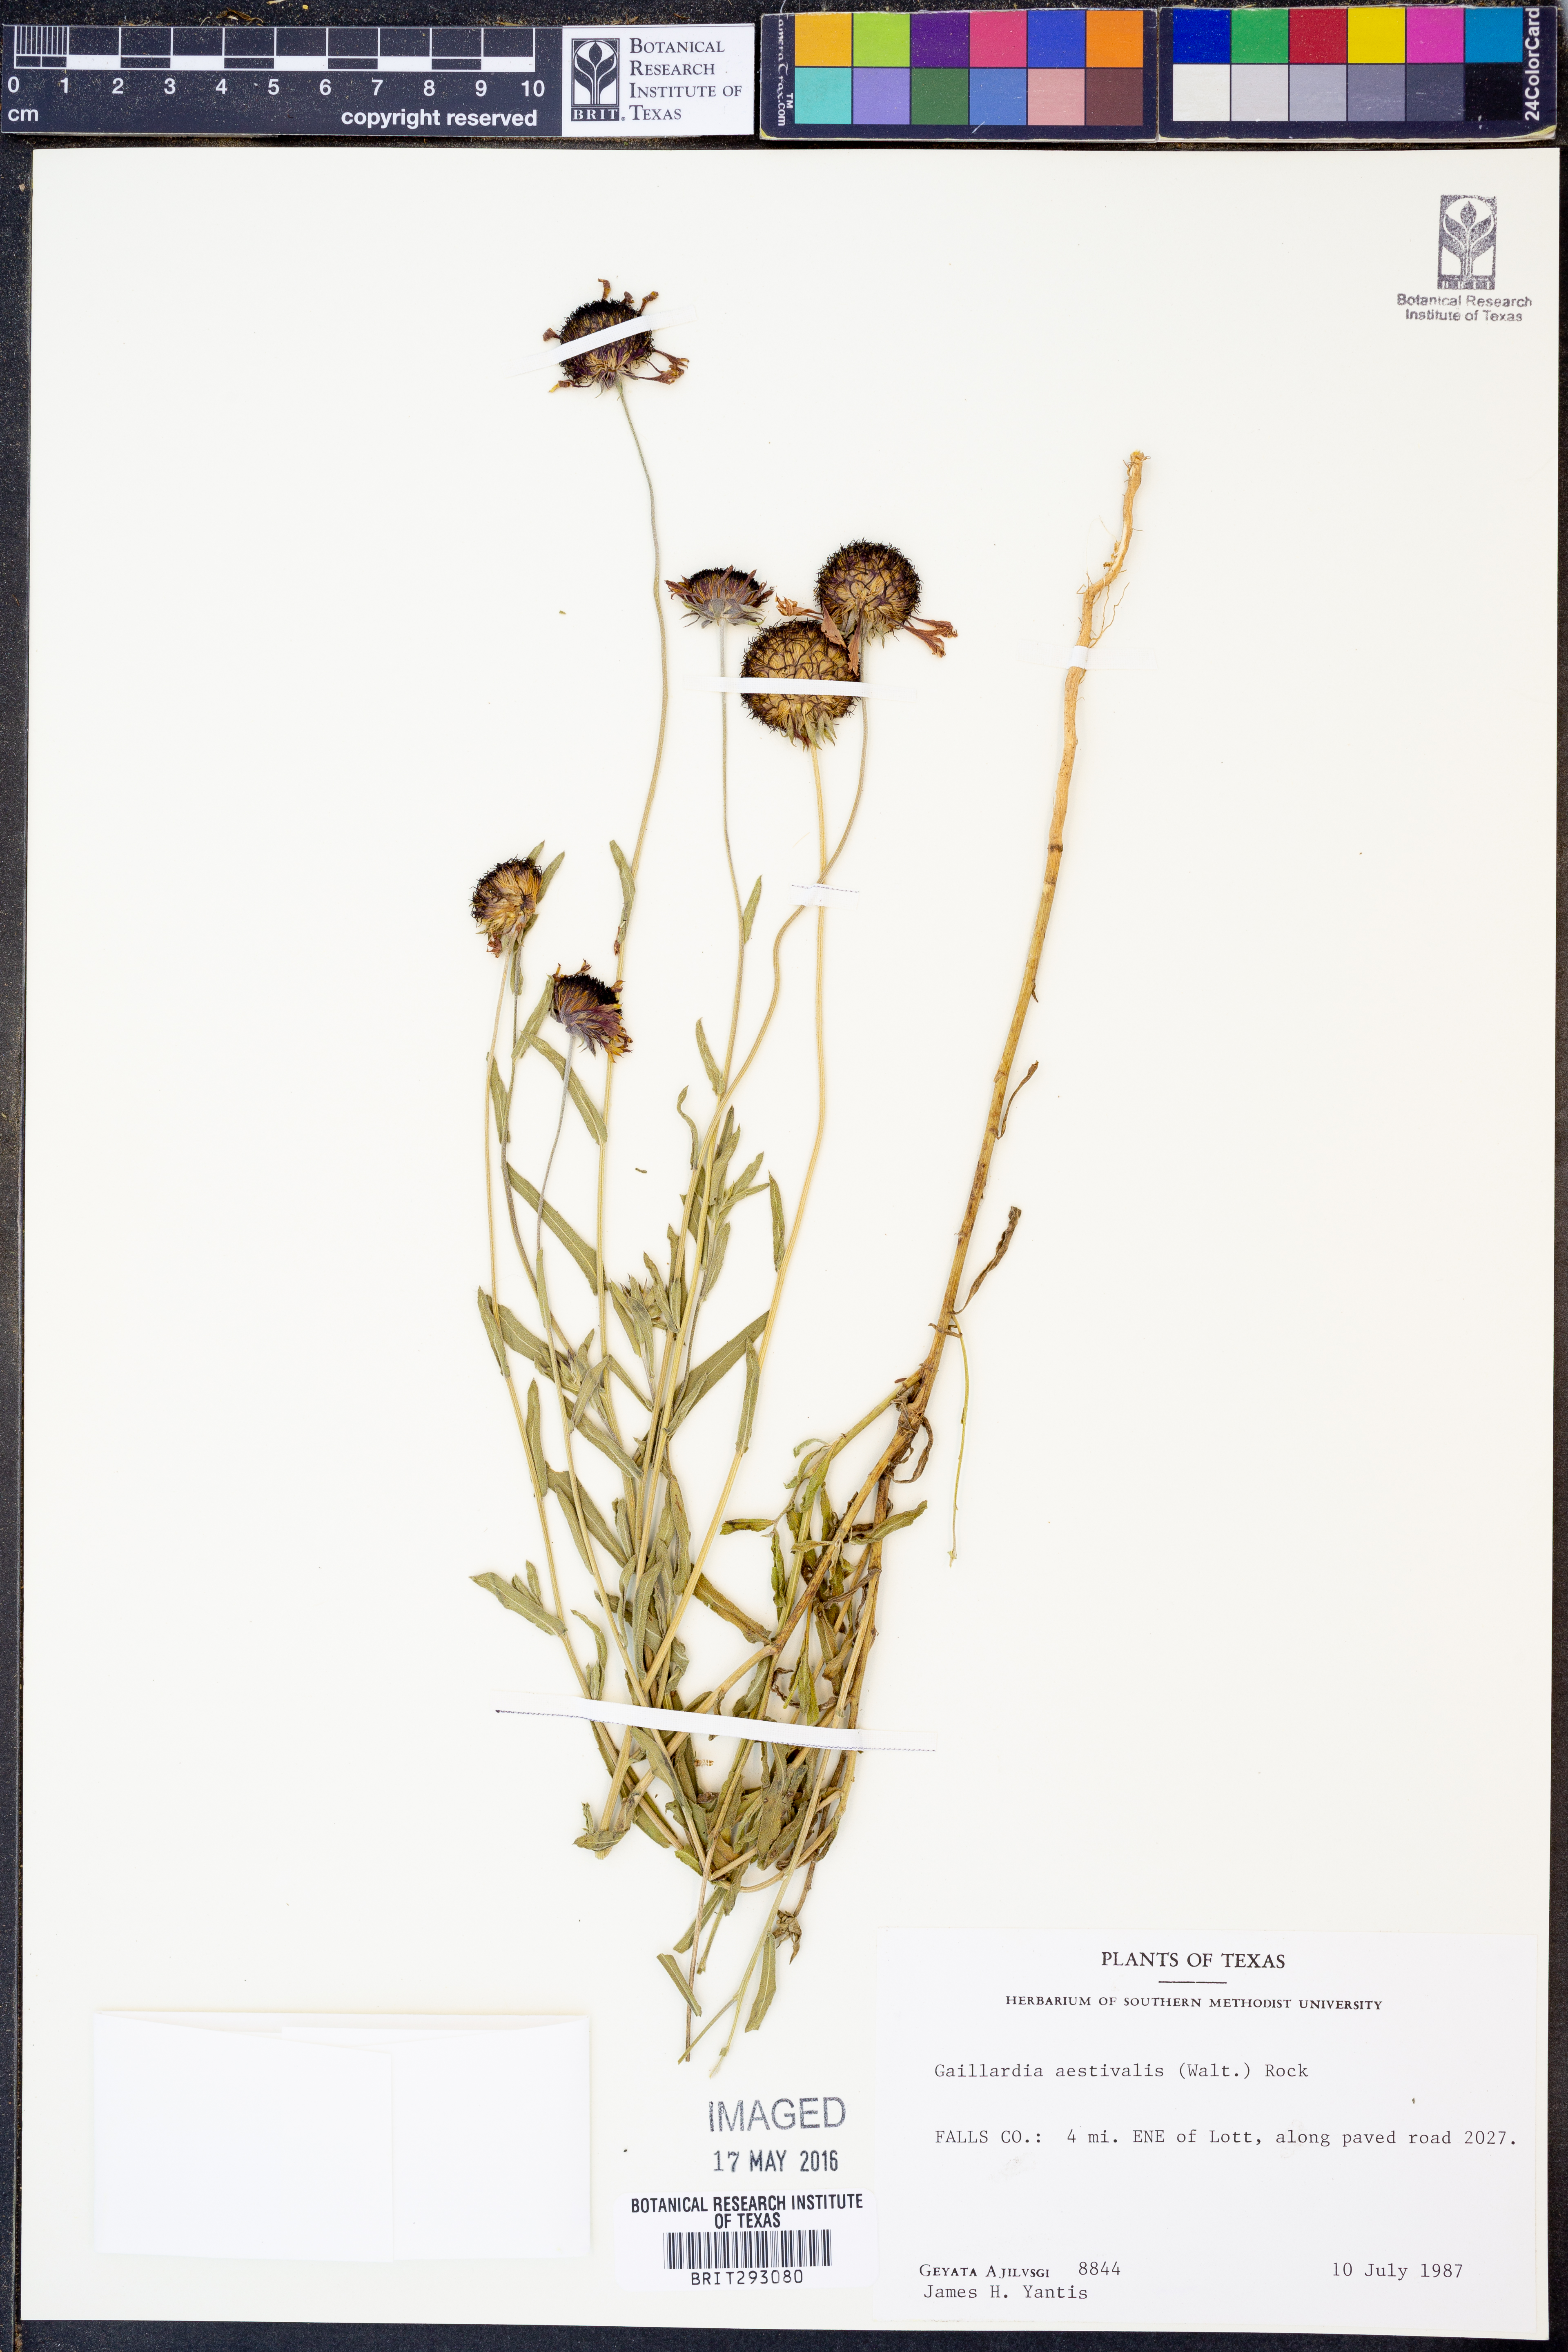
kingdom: Plantae
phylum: Tracheophyta
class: Magnoliopsida
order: Asterales
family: Asteraceae
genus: Gaillardia
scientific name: Gaillardia aestivalis
